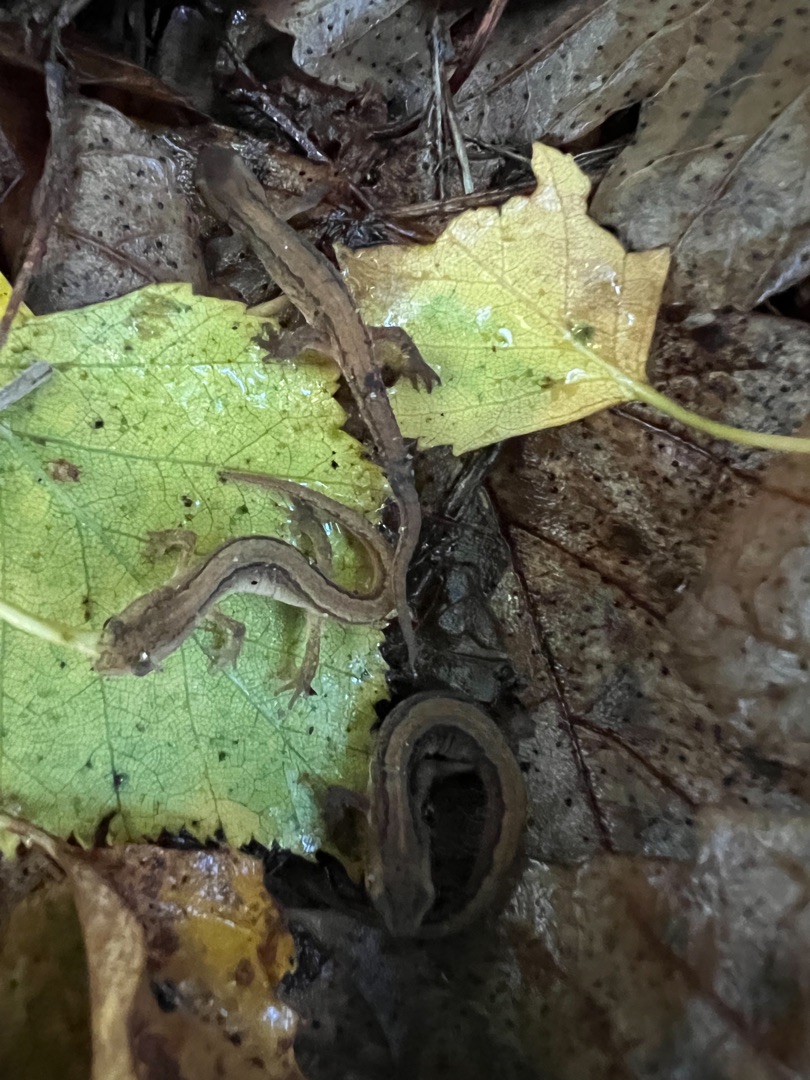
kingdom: Animalia
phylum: Chordata
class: Amphibia
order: Caudata
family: Salamandridae
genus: Lissotriton
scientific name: Lissotriton vulgaris
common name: Lille vandsalamander
